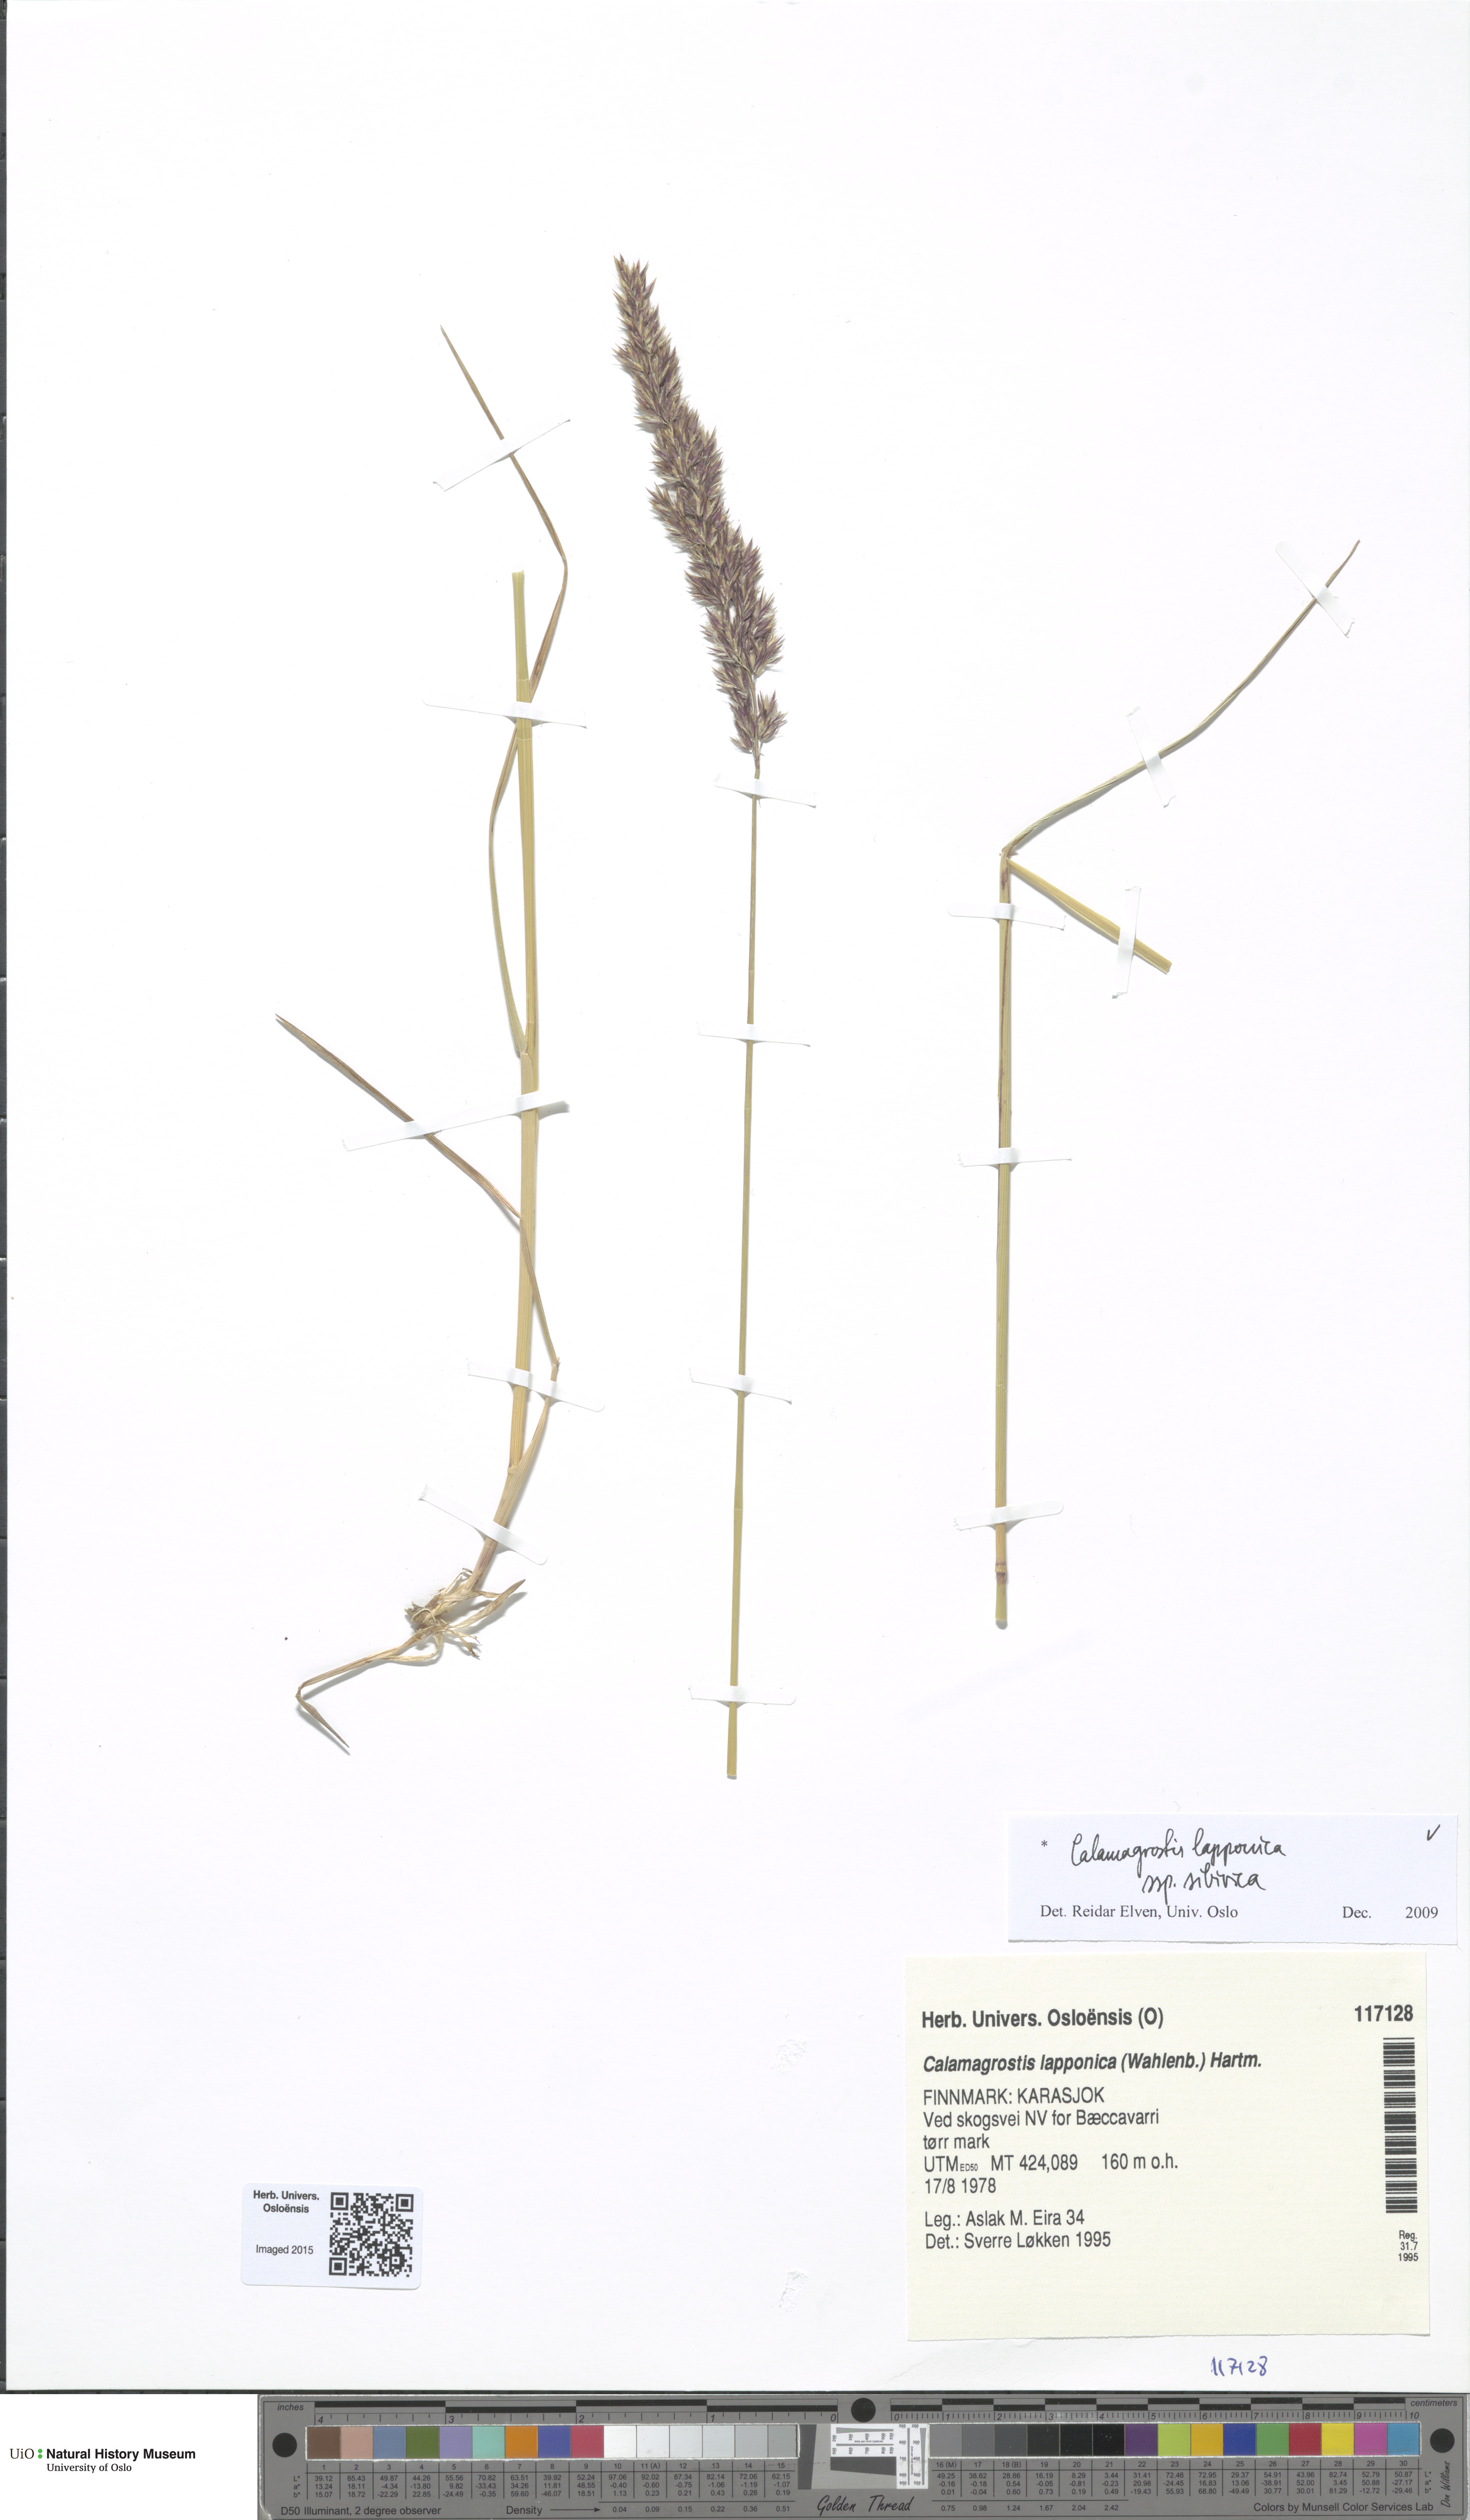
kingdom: Plantae
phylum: Tracheophyta
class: Liliopsida
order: Poales
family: Poaceae
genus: Calamagrostis
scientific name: Calamagrostis lapponica
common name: Lapland reedgrass
